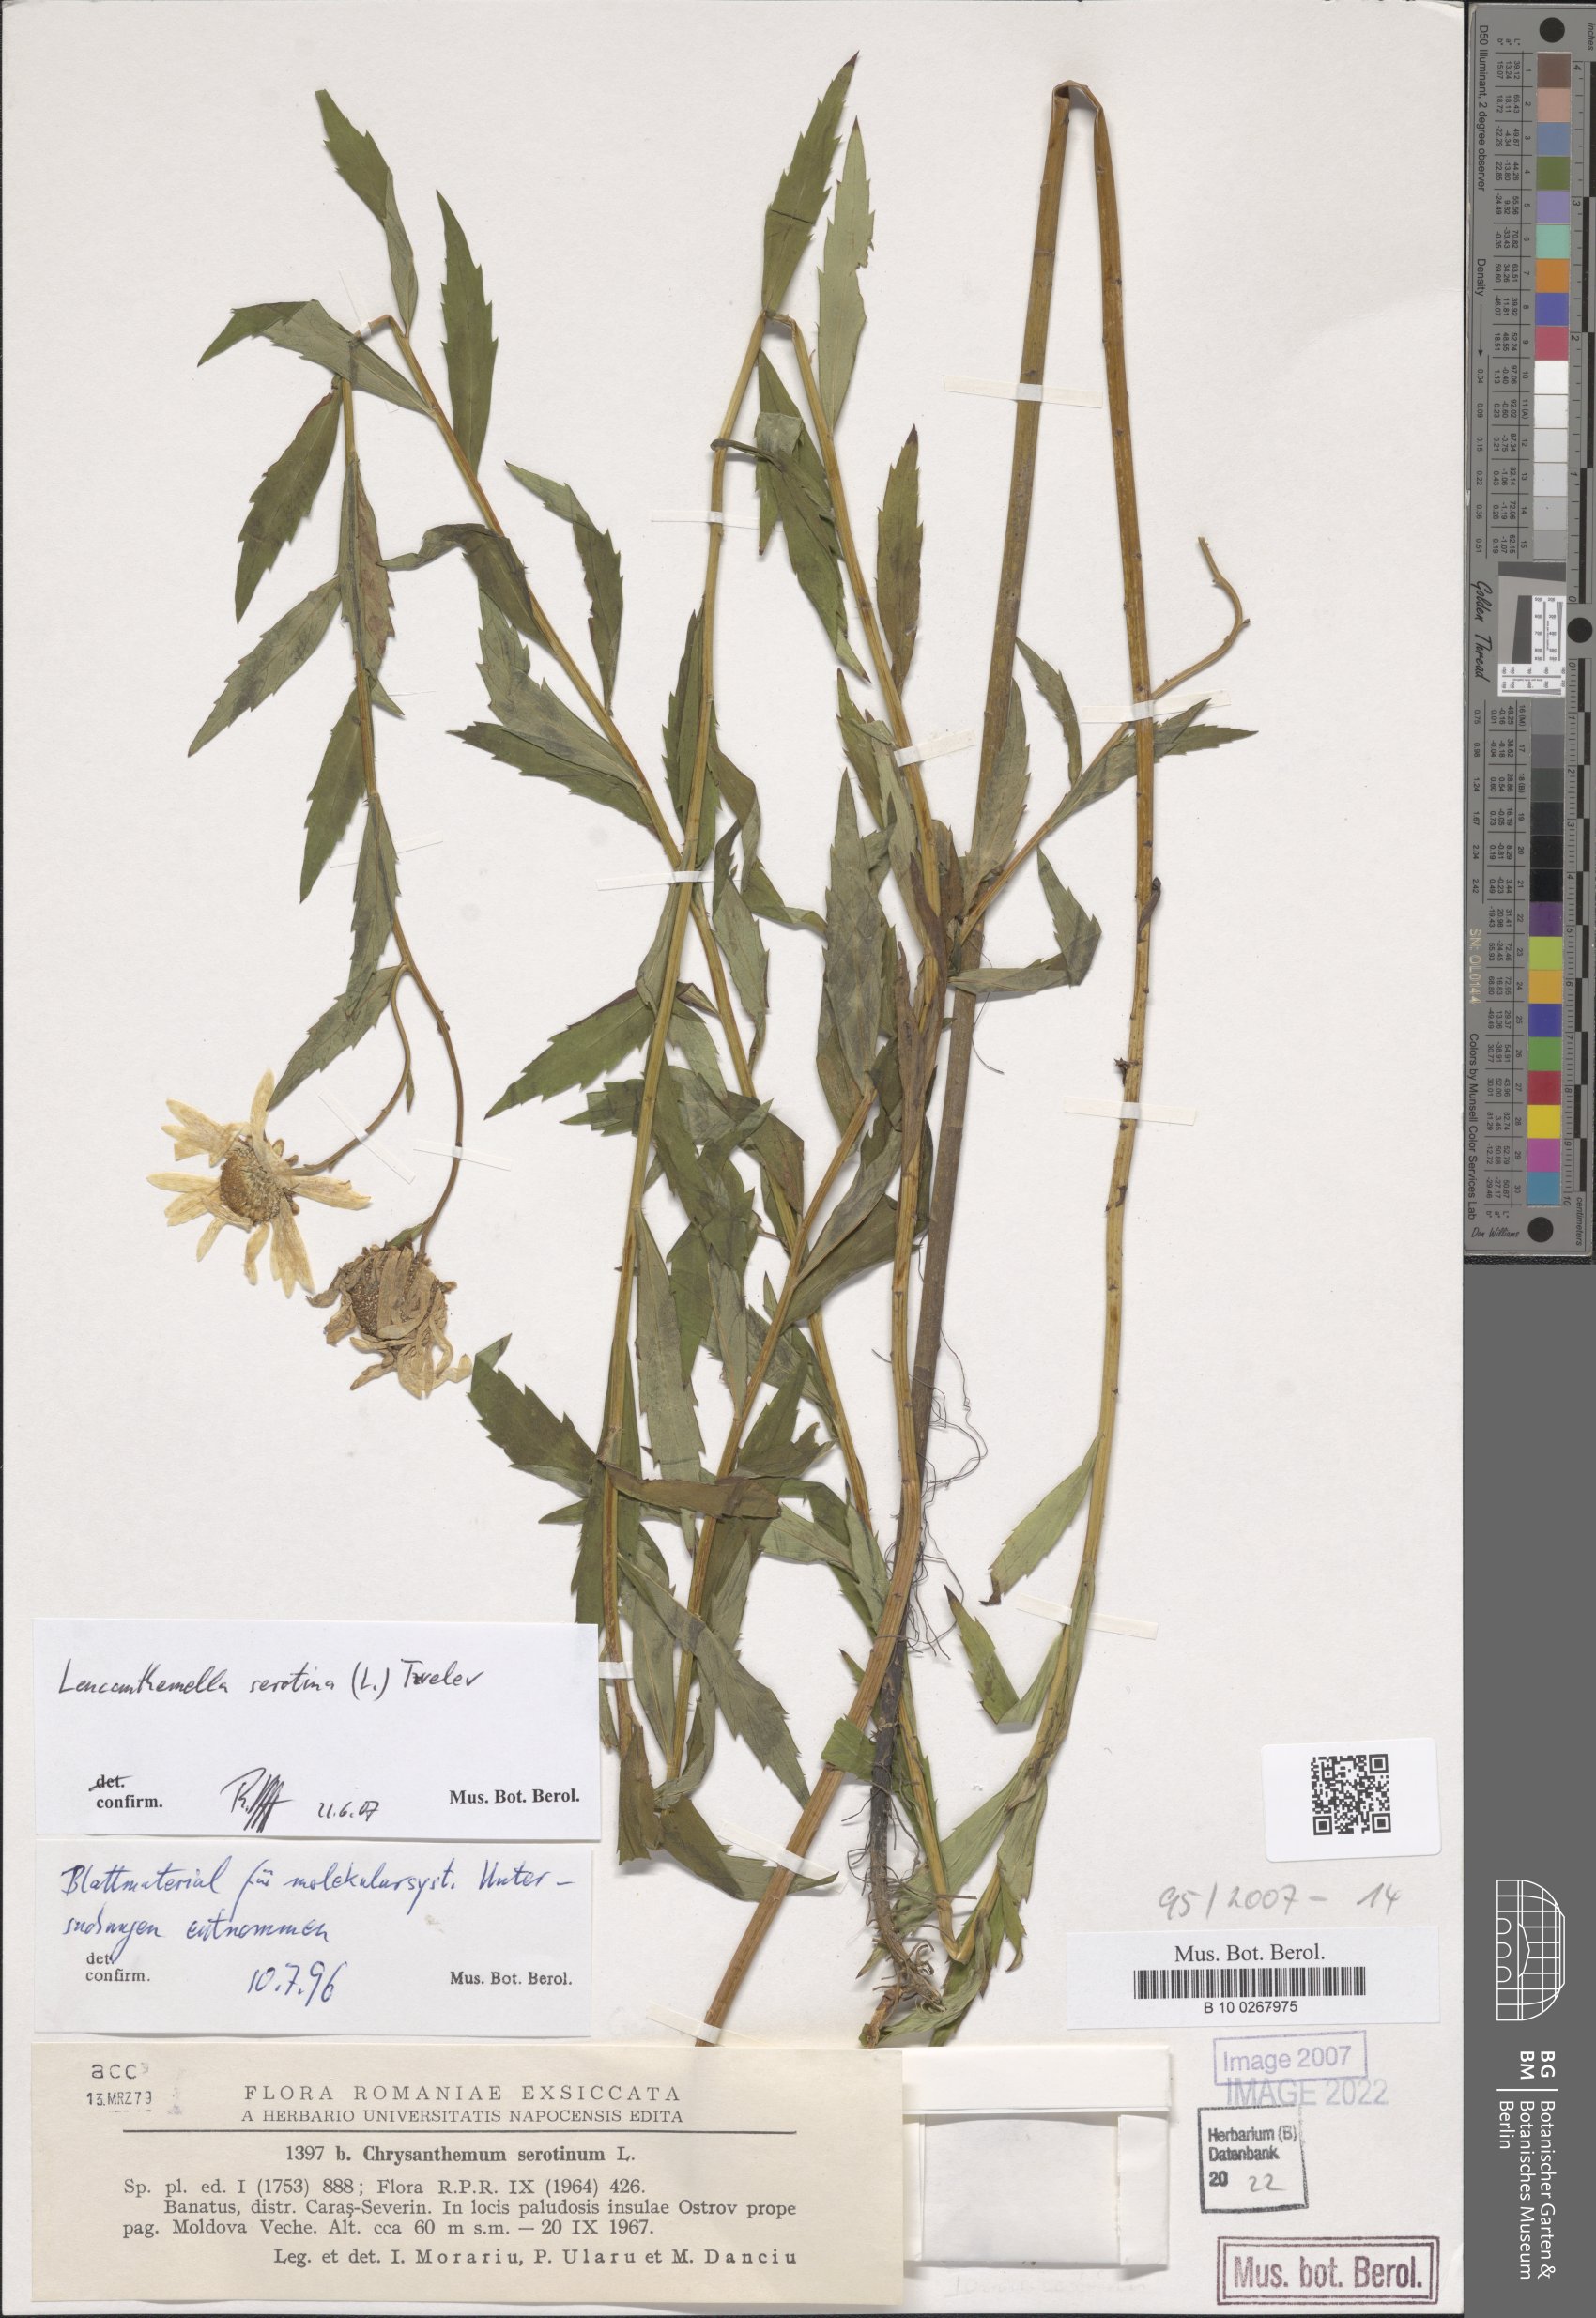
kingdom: Plantae
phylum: Tracheophyta
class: Magnoliopsida
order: Asterales
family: Asteraceae
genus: Leucanthemella
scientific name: Leucanthemella serotina
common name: Autumn oxeye
